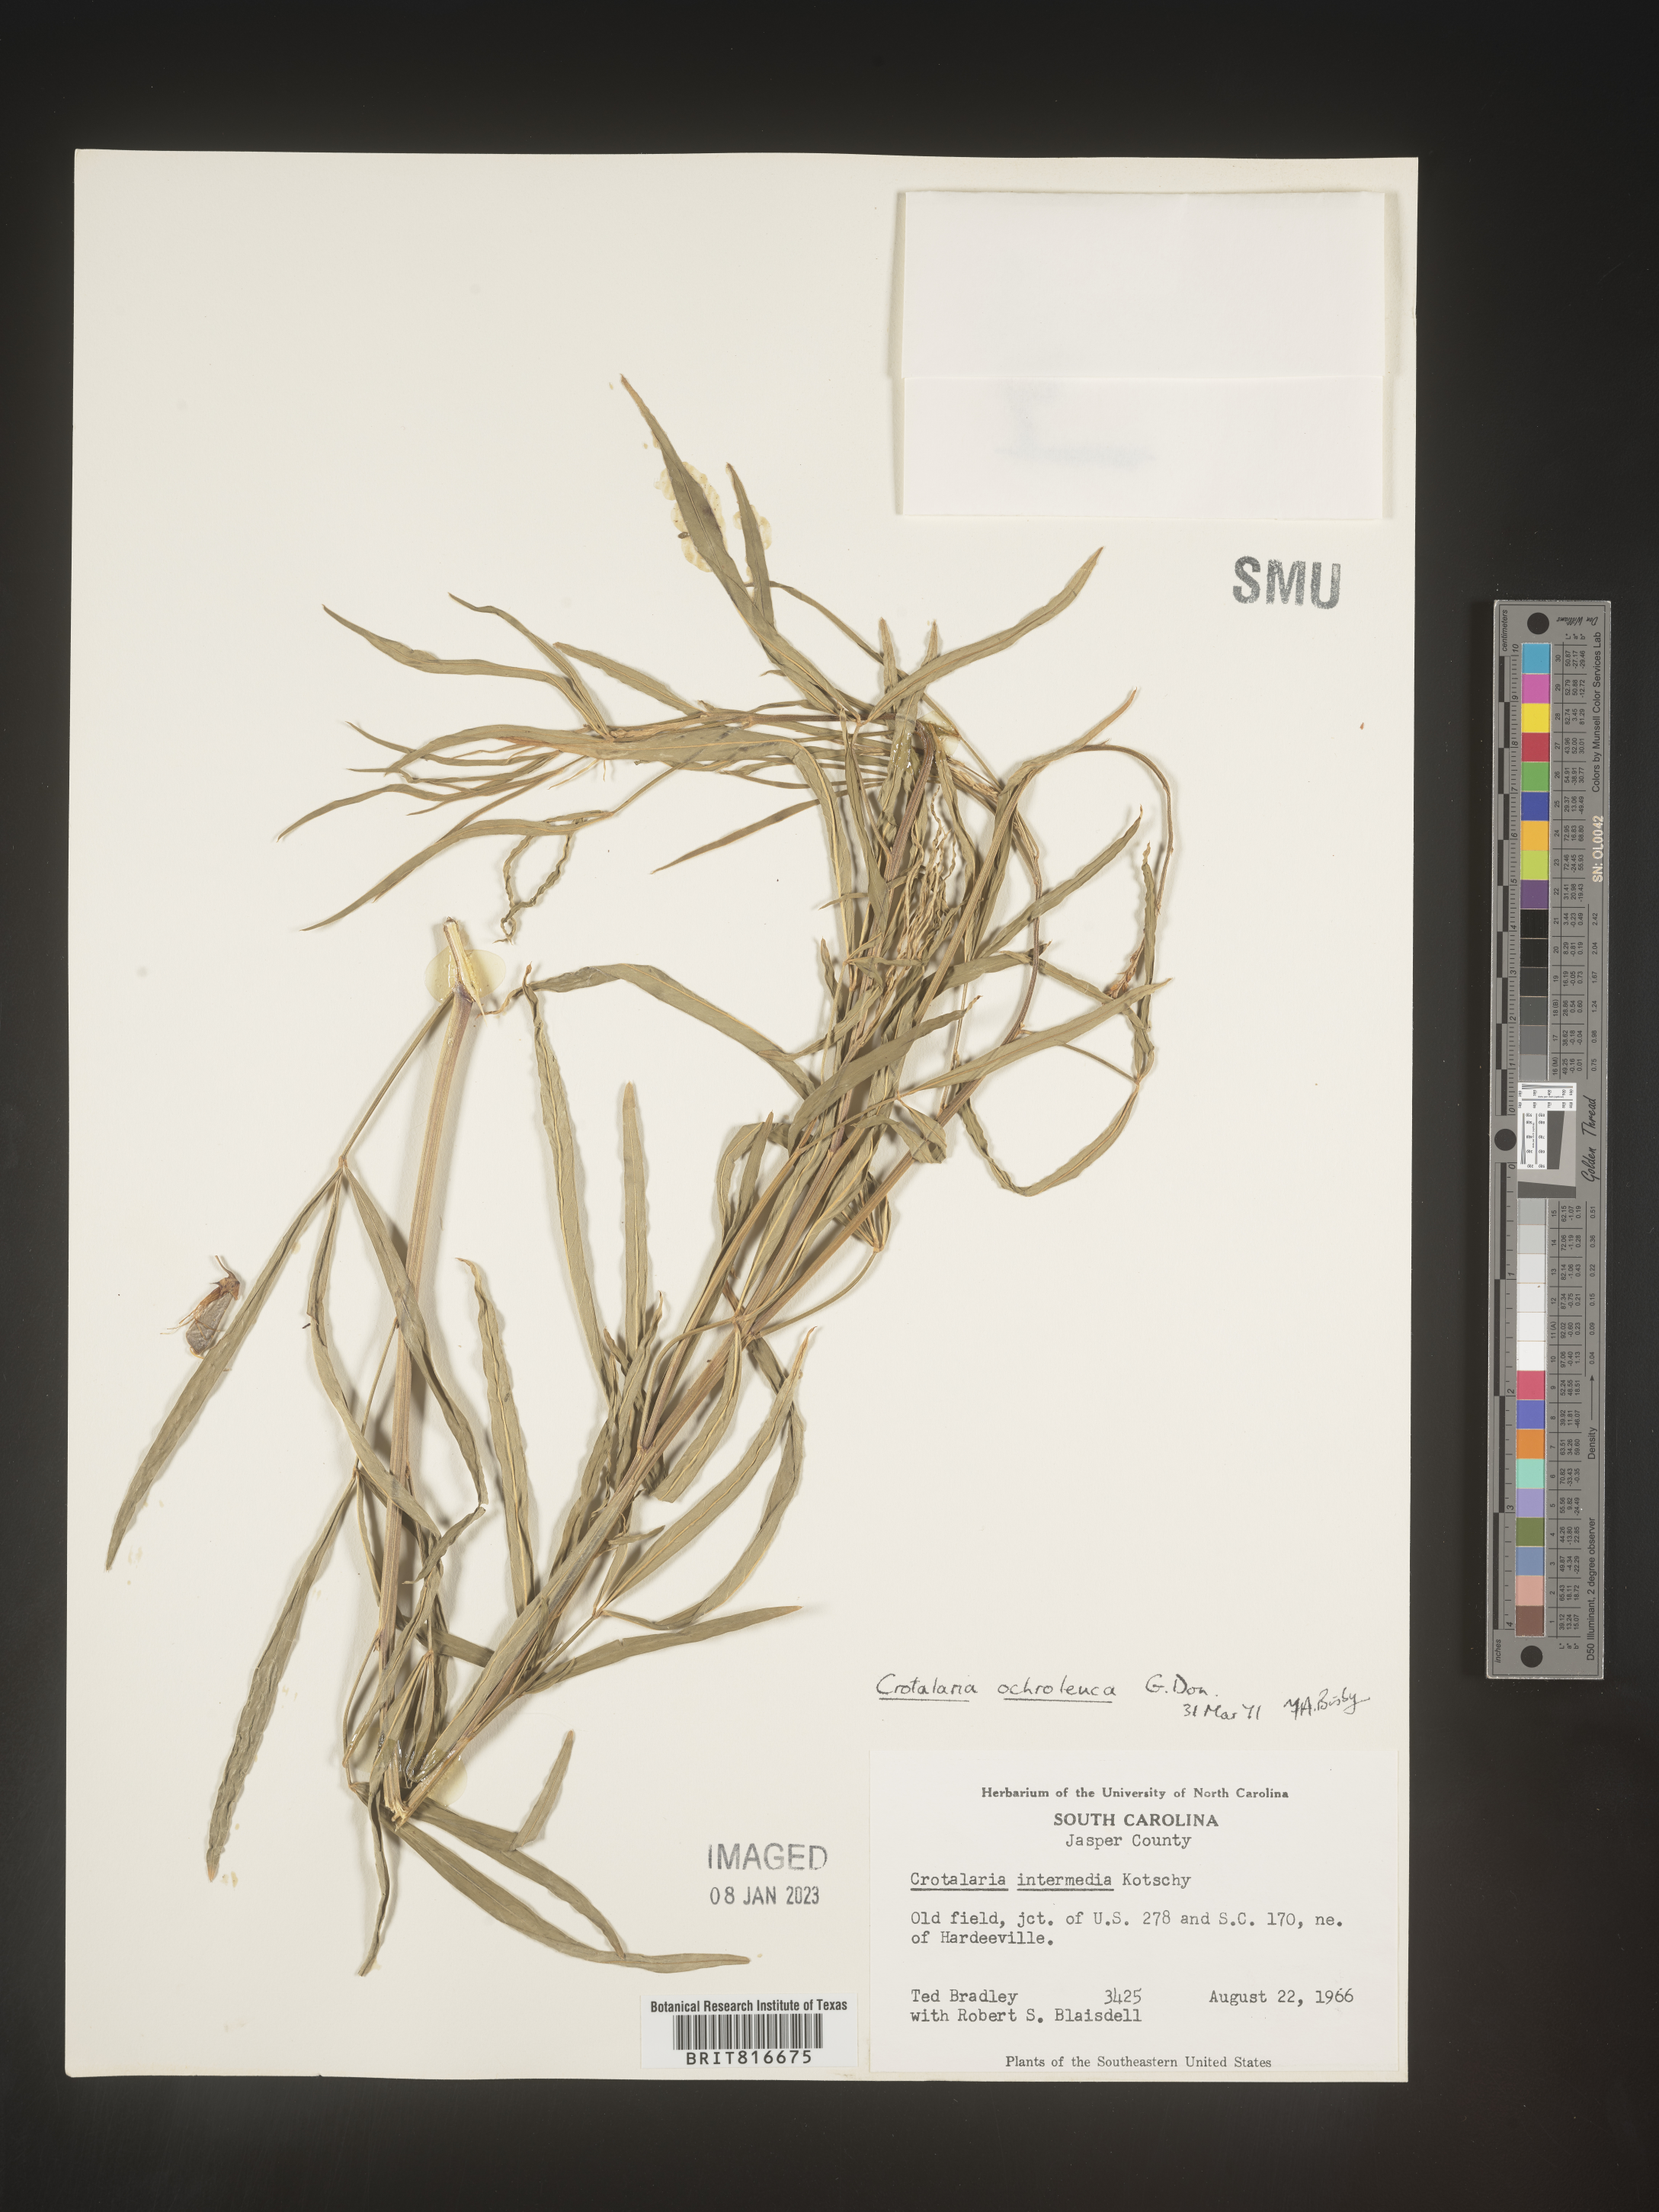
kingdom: Plantae
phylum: Tracheophyta
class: Magnoliopsida
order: Fabales
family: Fabaceae
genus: Crotalaria
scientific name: Crotalaria ochroleuca
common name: Slender leaf rattlebox
